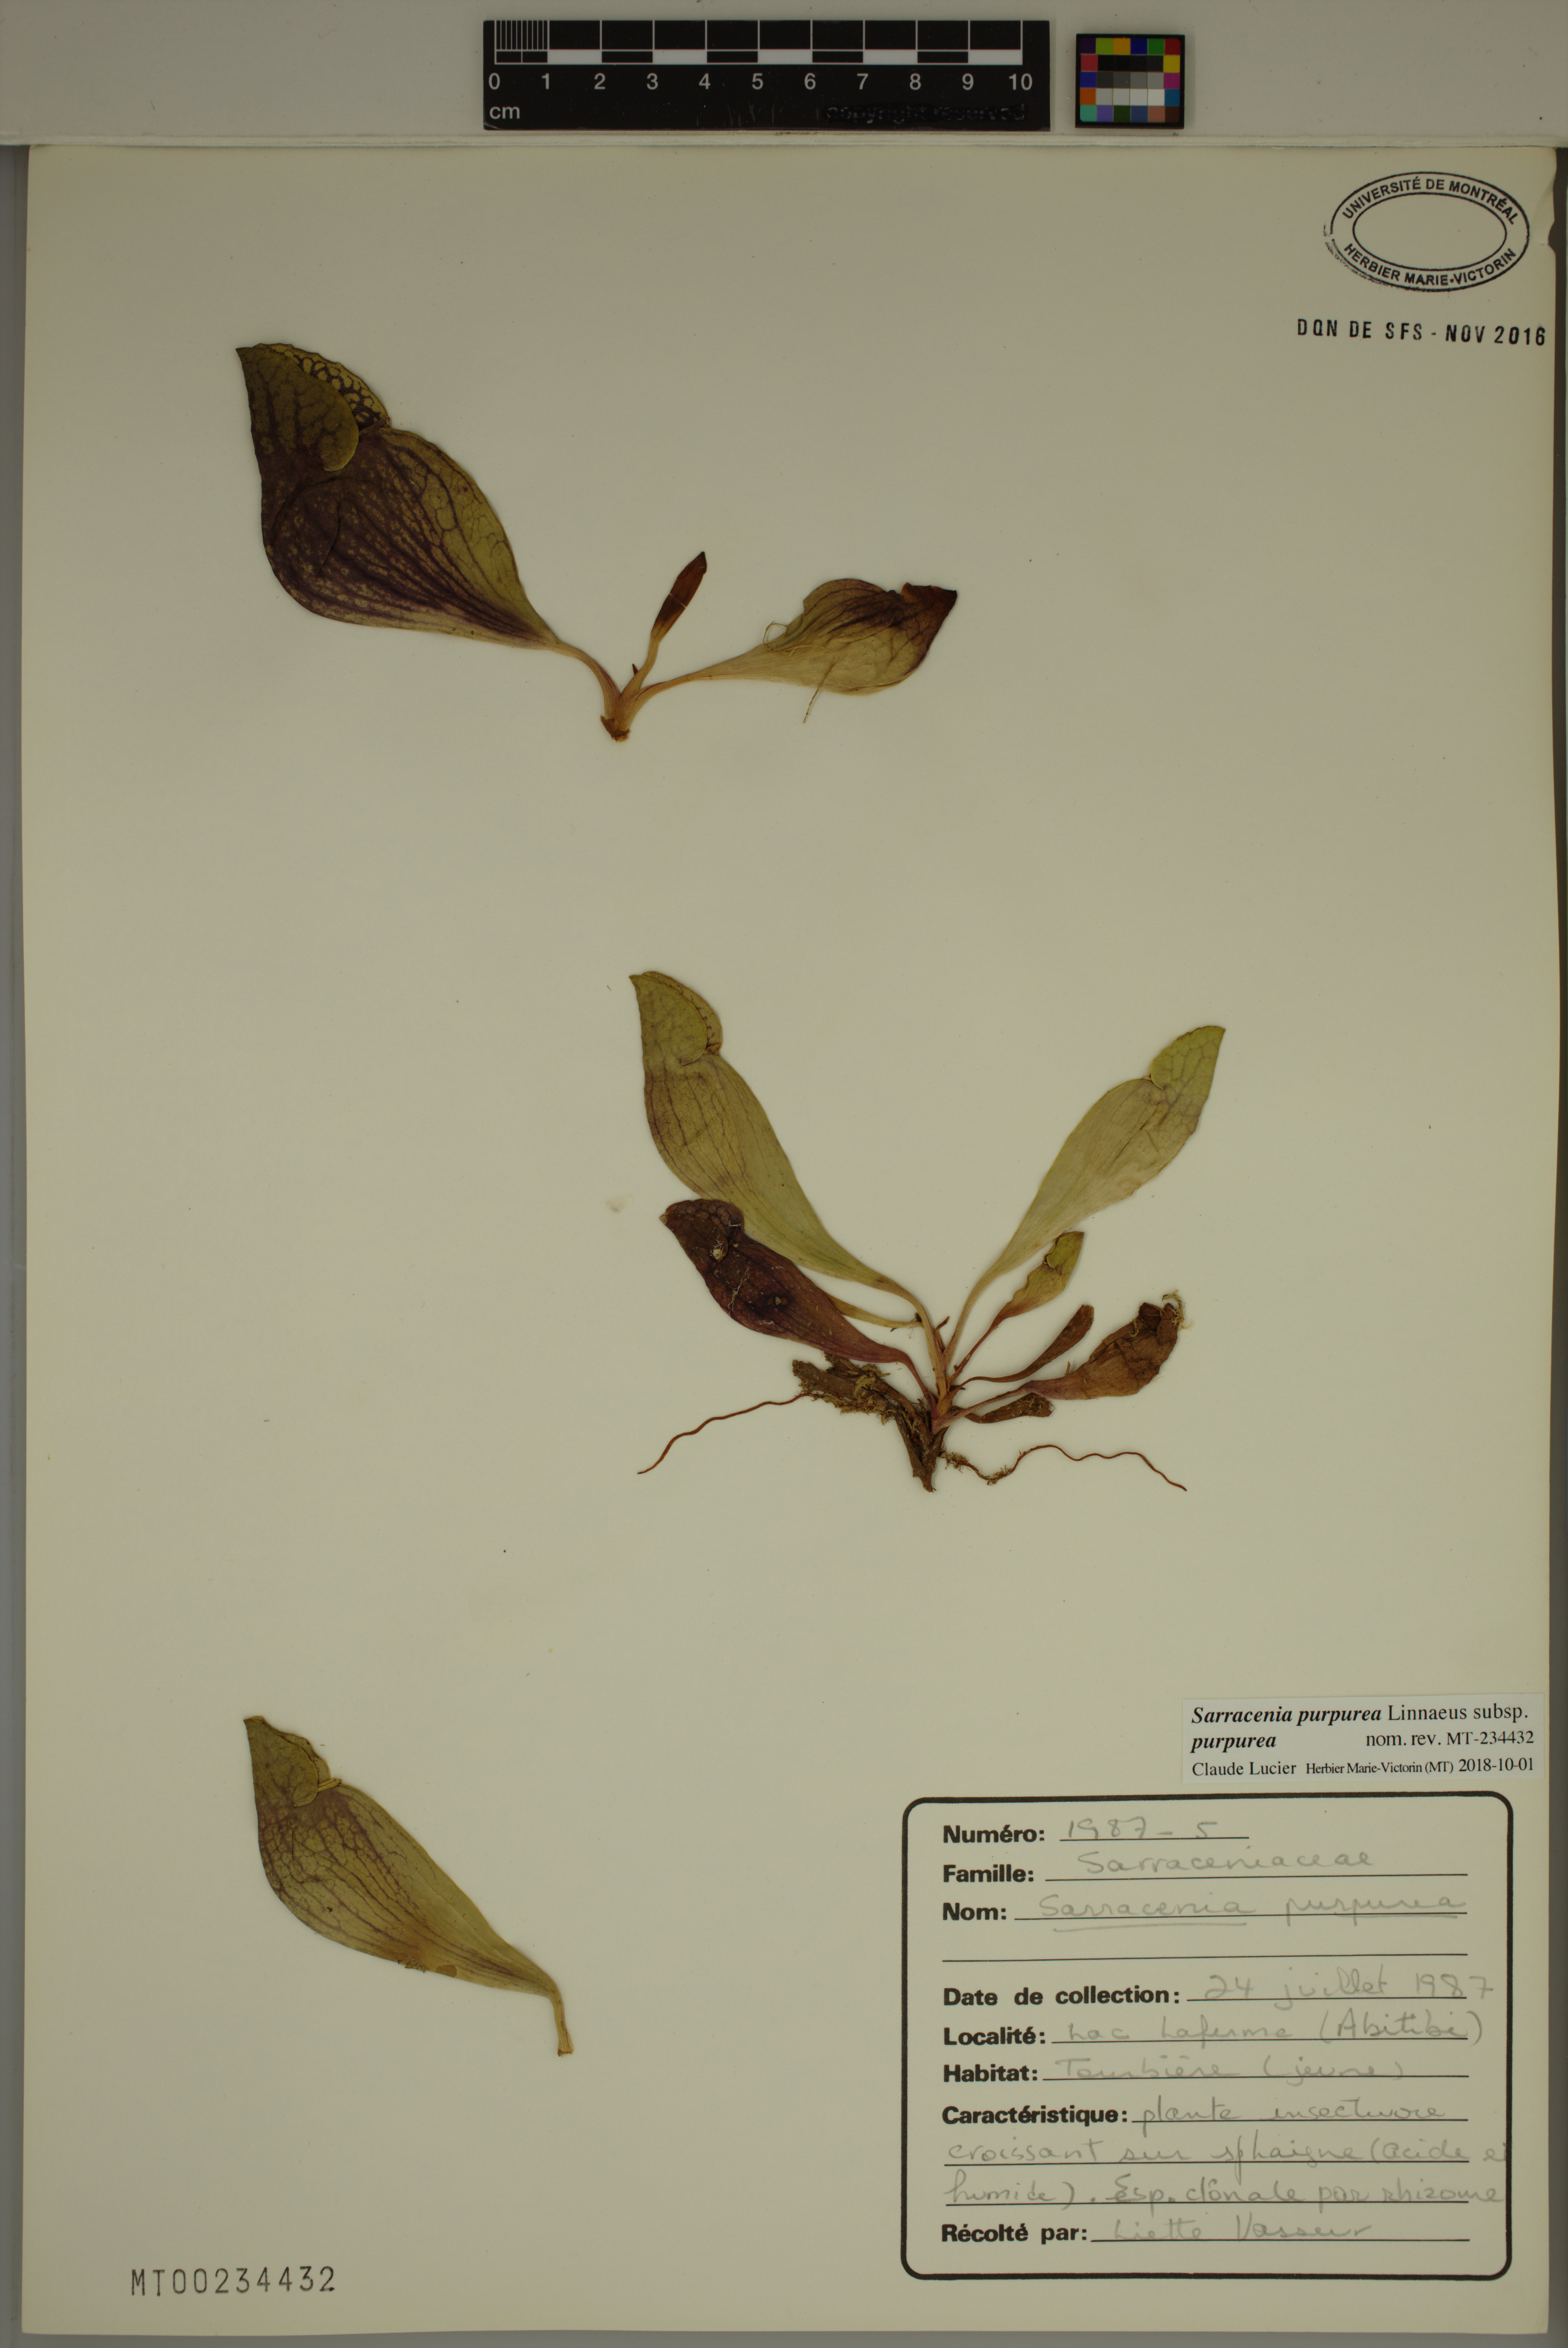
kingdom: Plantae
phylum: Tracheophyta
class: Magnoliopsida
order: Ericales
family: Sarraceniaceae
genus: Sarracenia
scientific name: Sarracenia purpurea
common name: Pitcherplant
